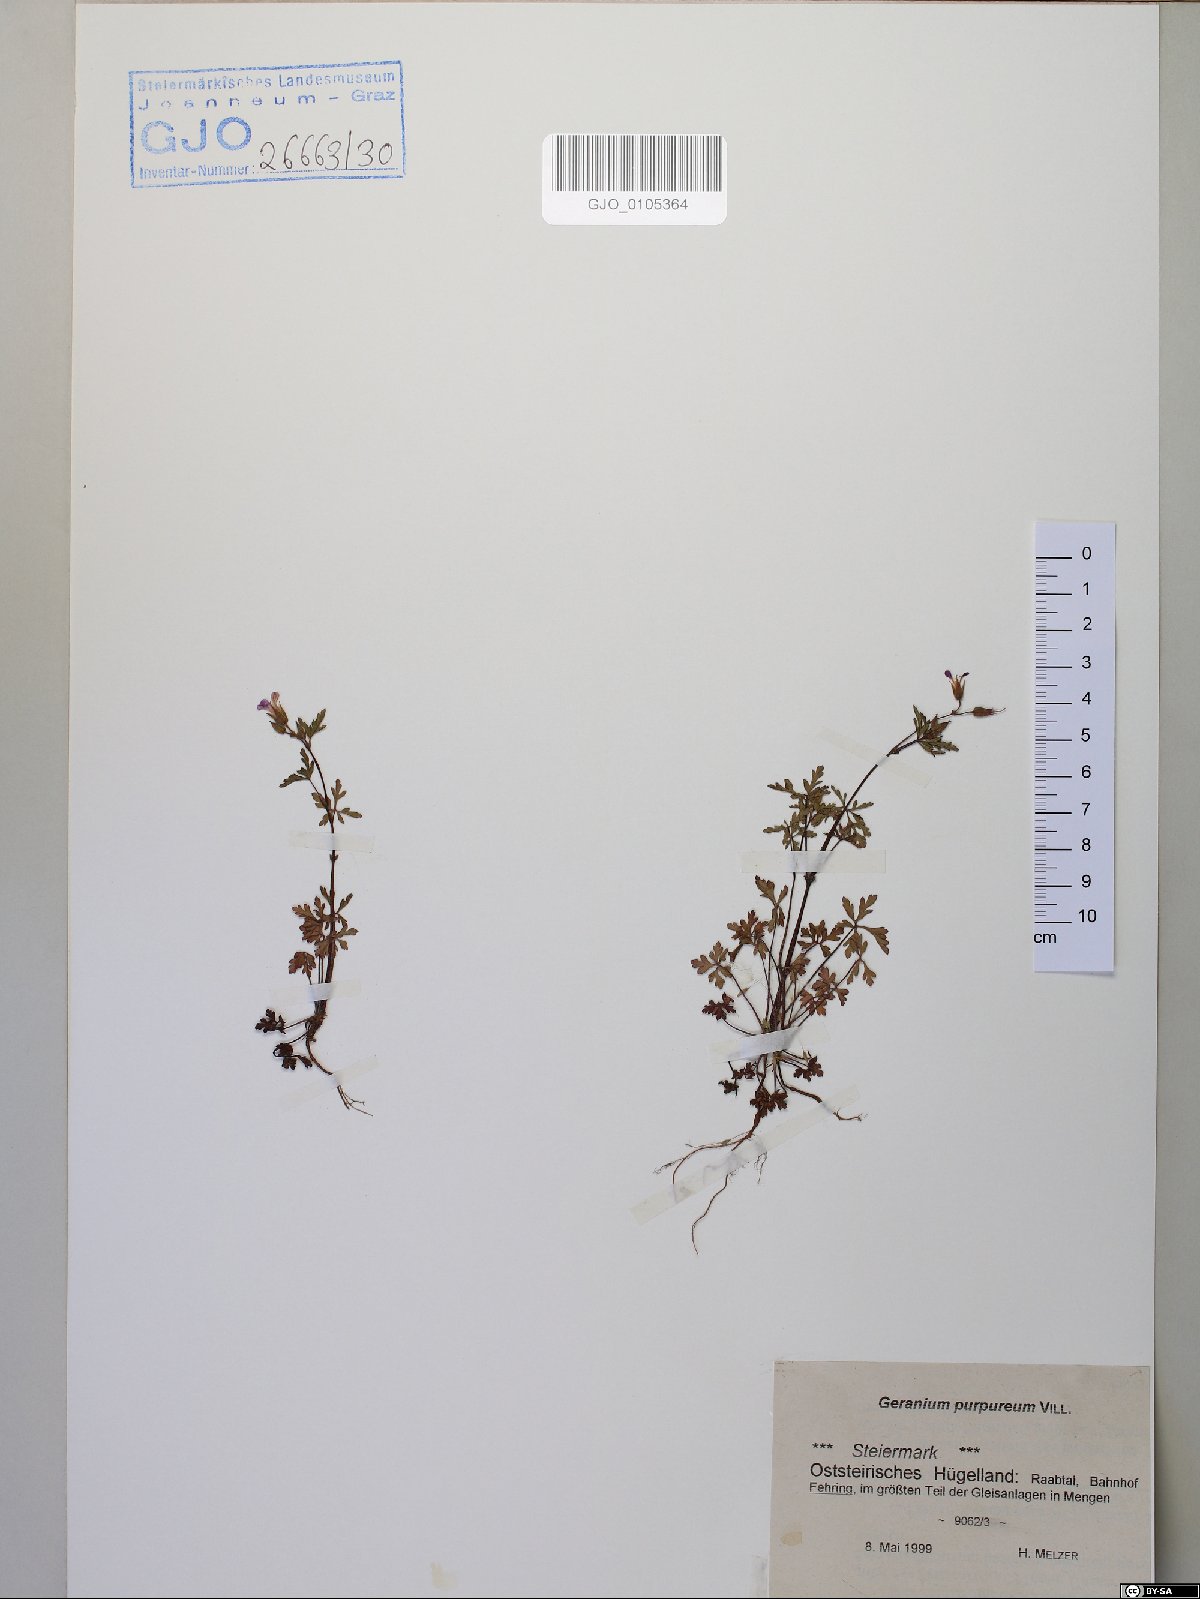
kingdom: Plantae
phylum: Tracheophyta
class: Magnoliopsida
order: Geraniales
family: Geraniaceae
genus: Geranium
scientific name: Geranium purpureum
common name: Little-robin
